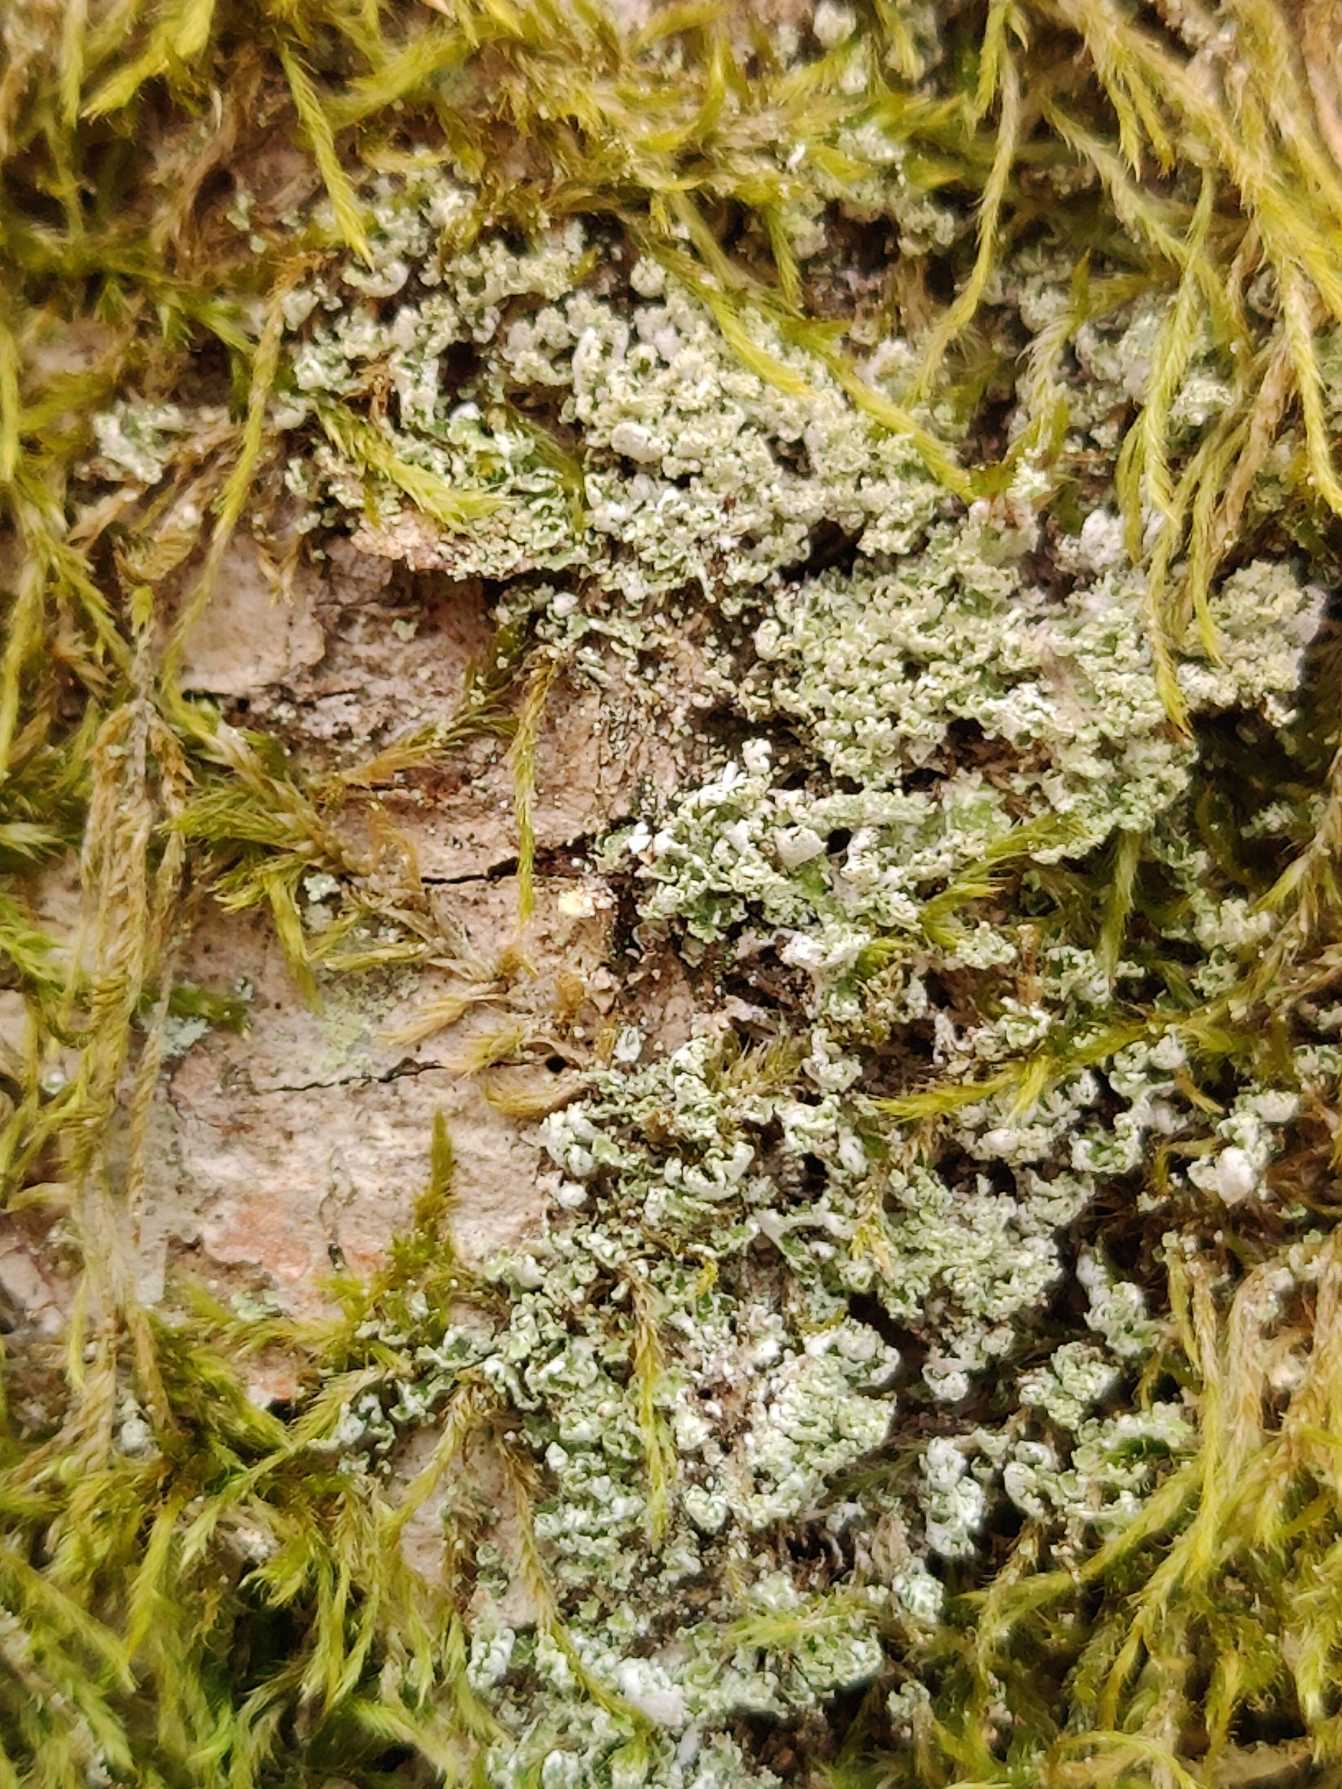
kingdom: Fungi
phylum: Ascomycota
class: Lecanoromycetes
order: Lecanorales
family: Cladoniaceae
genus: Cladonia
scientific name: Cladonia
